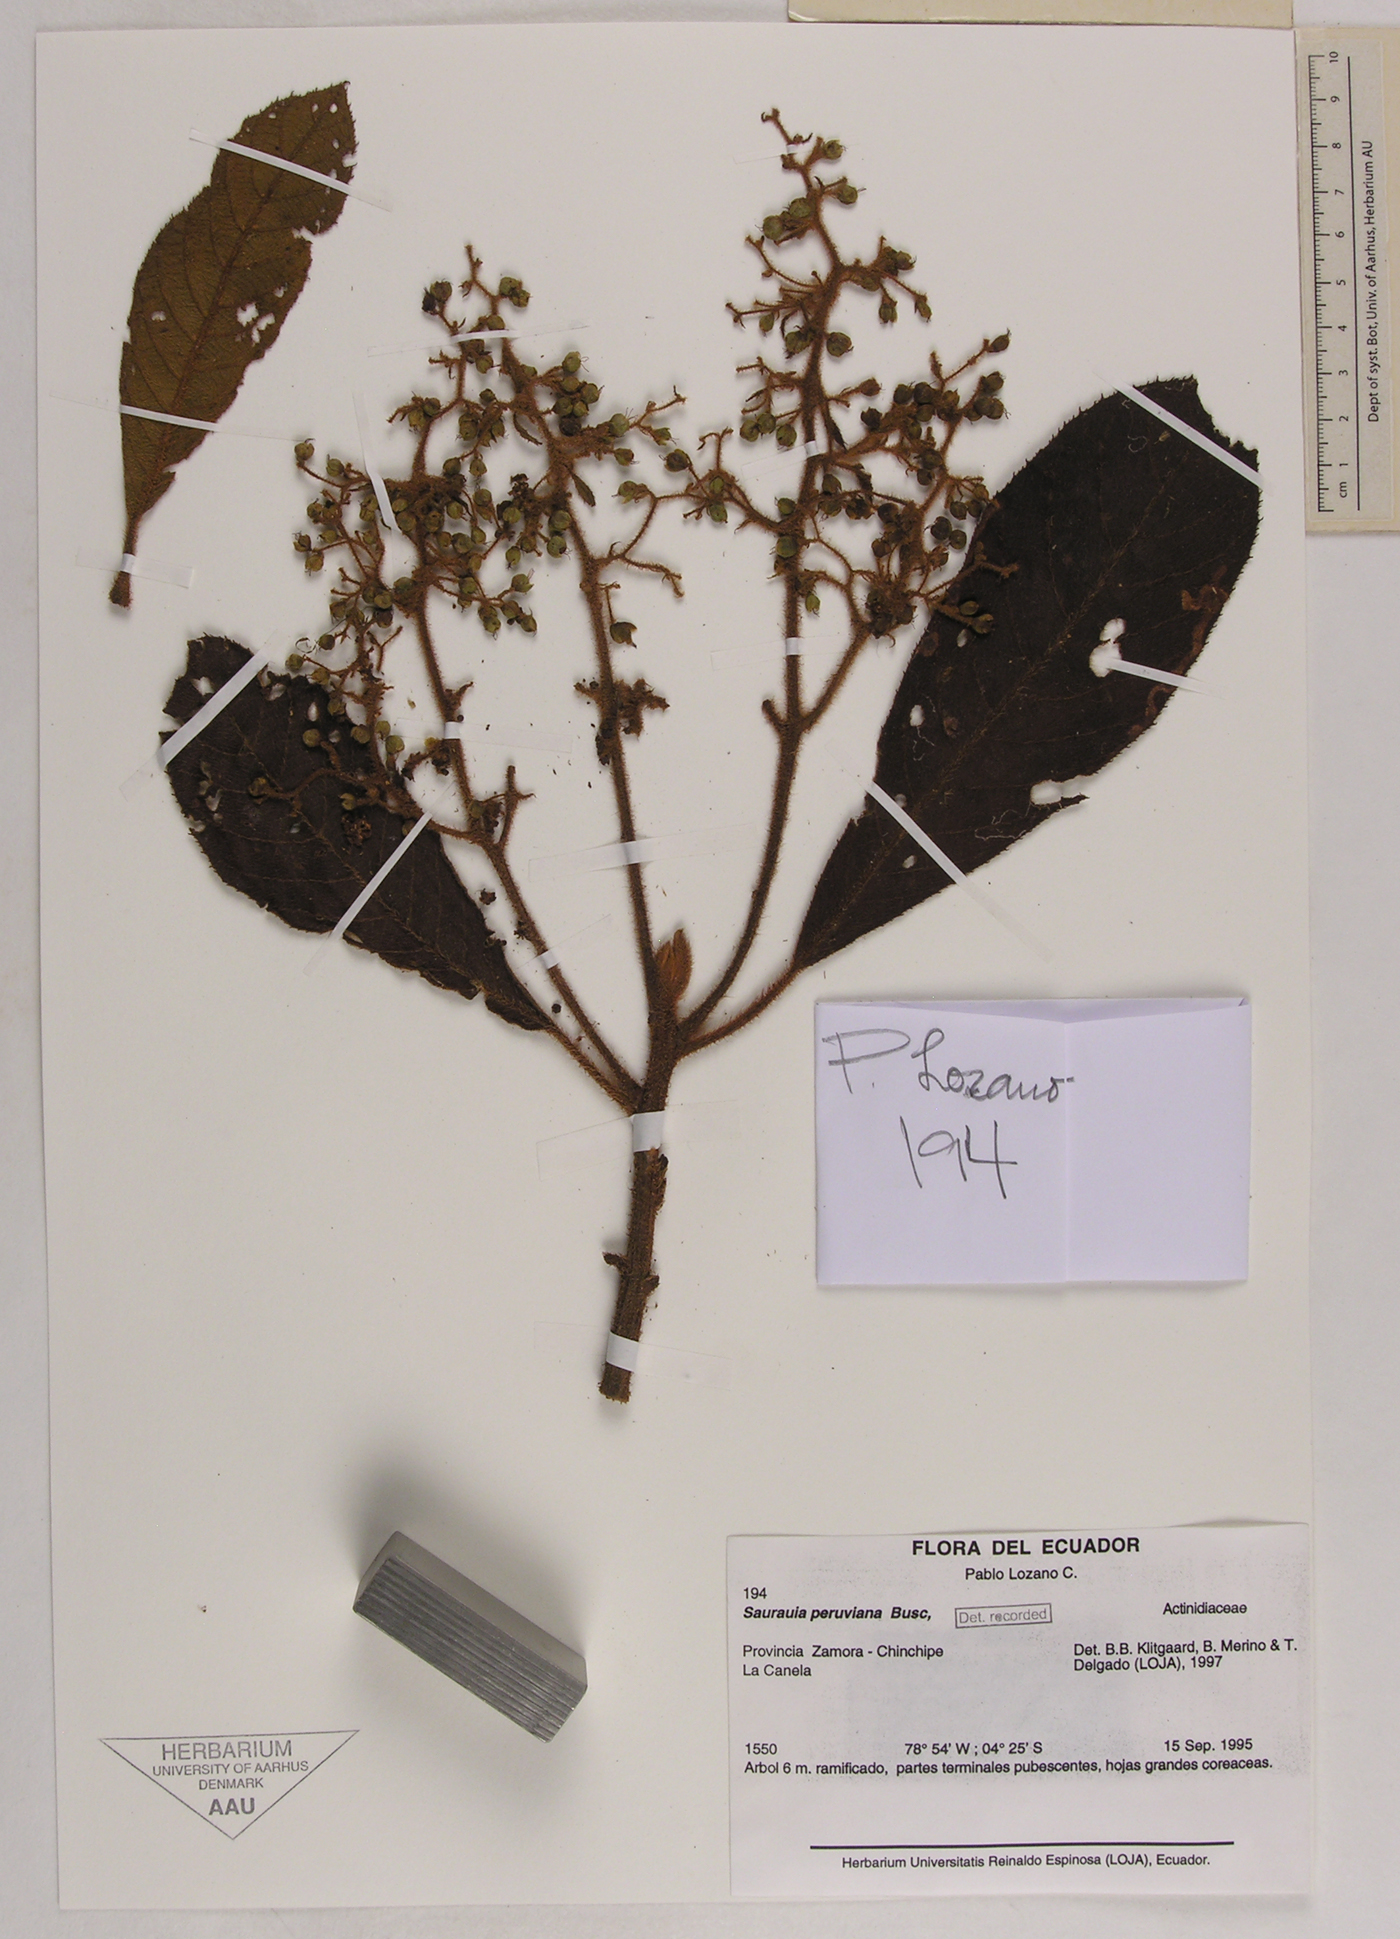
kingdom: Plantae
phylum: Tracheophyta
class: Magnoliopsida
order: Ericales
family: Actinidiaceae
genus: Saurauia
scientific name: Saurauia peruviana
